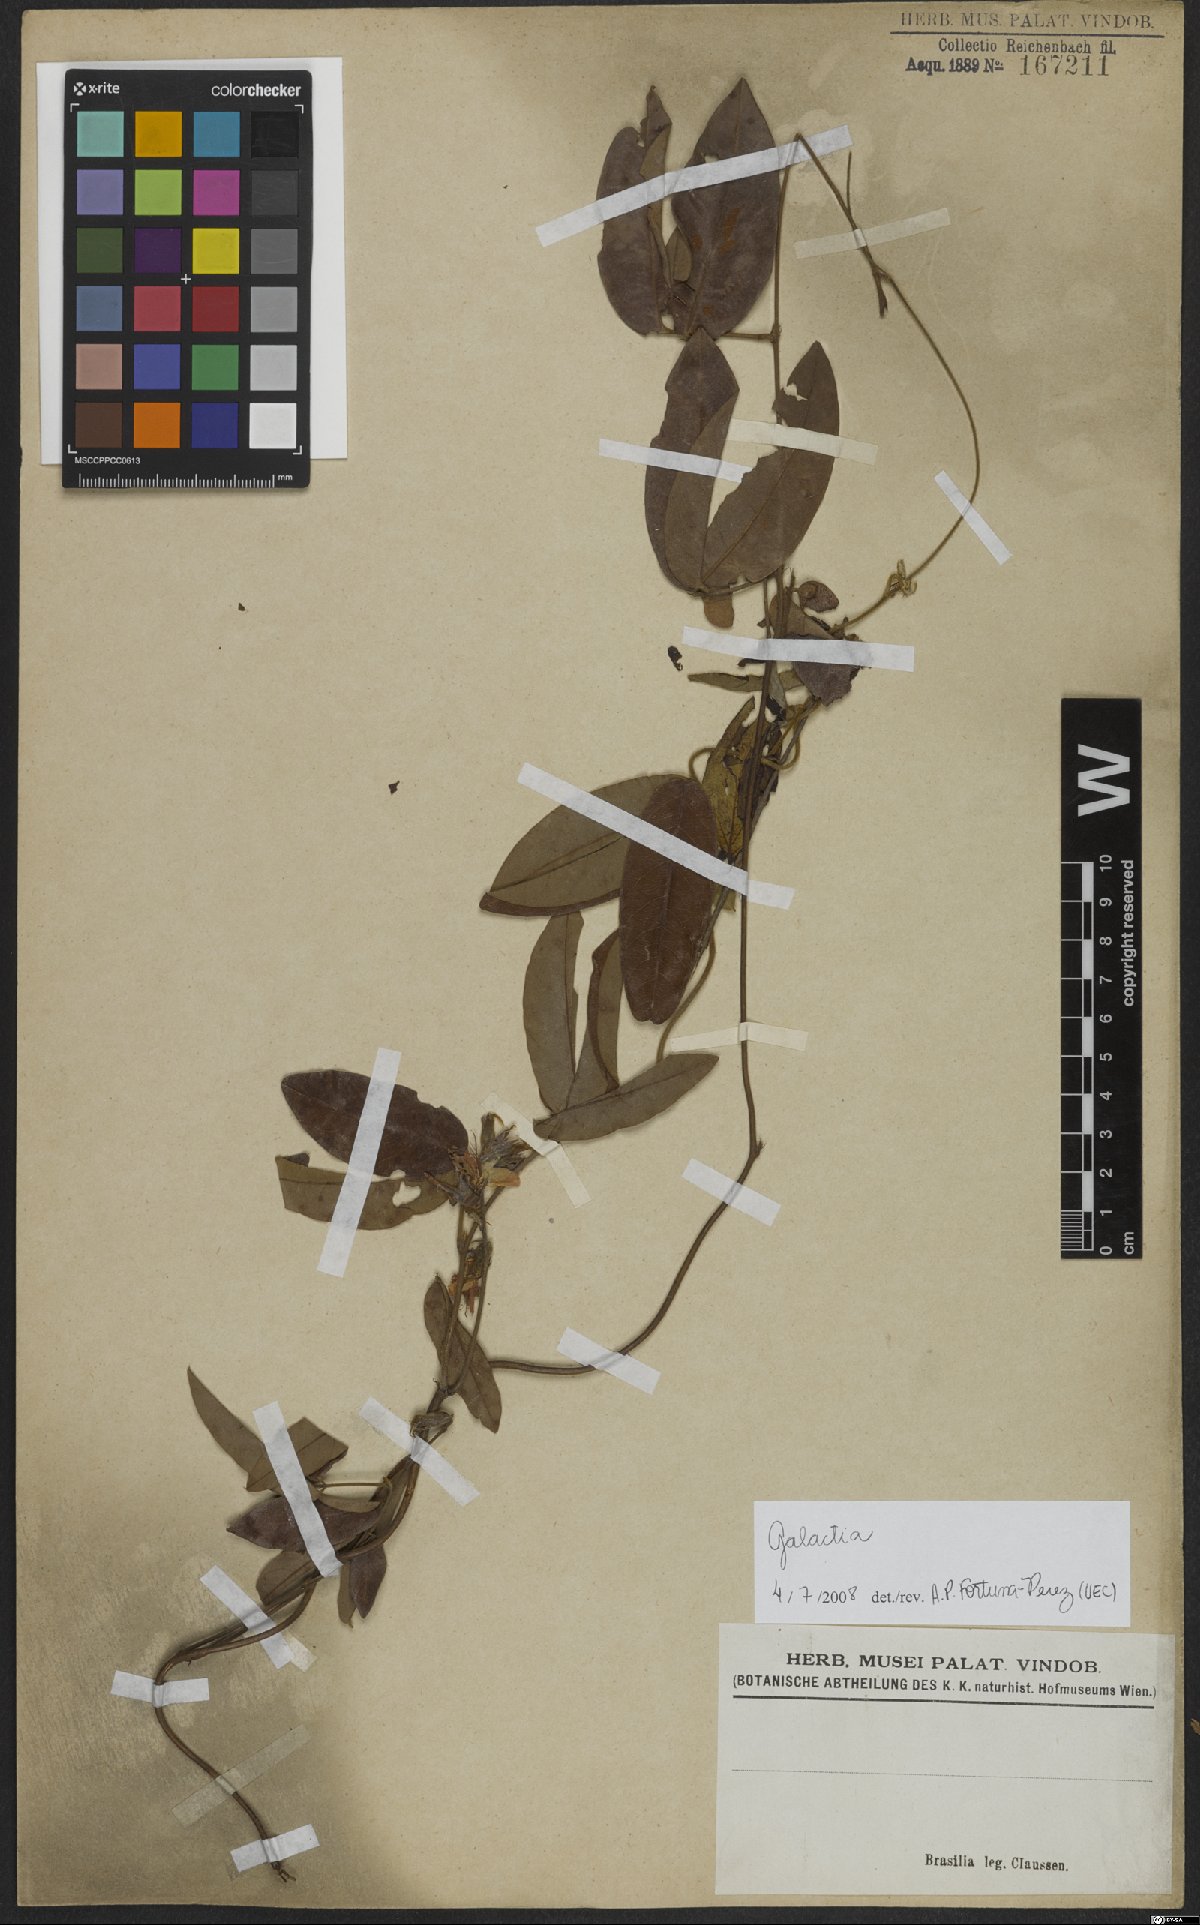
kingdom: Plantae
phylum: Tracheophyta
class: Magnoliopsida
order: Fabales
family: Fabaceae
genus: Galactia
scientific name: Galactia striata
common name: Florida hammock milkpea
